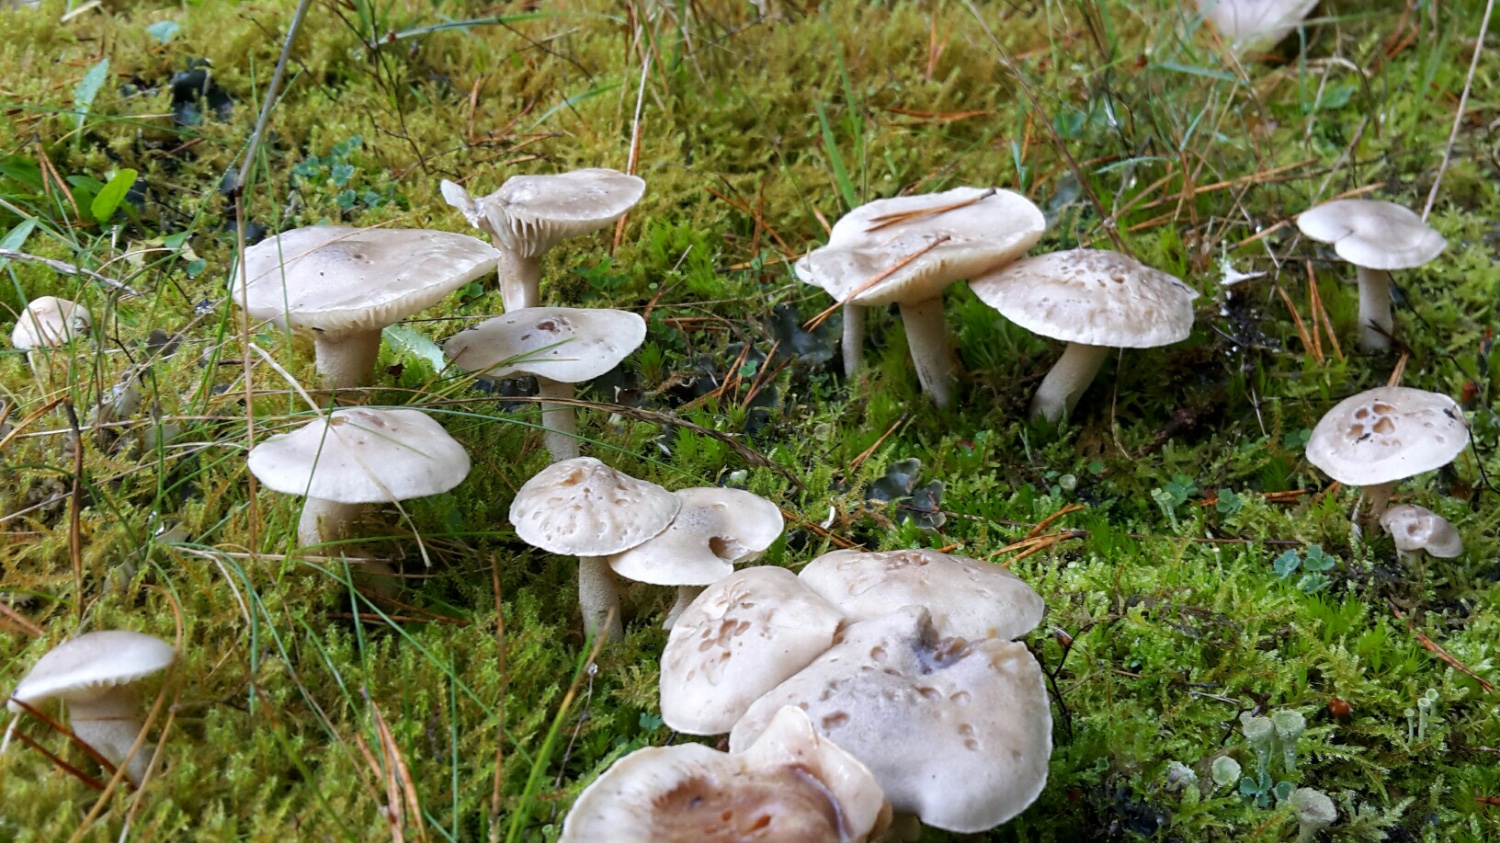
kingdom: Fungi
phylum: Basidiomycota
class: Agaricomycetes
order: Agaricales
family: Hygrophoraceae
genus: Hygrophorus
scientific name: Hygrophorus agathosmus
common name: vellugtende sneglehat
